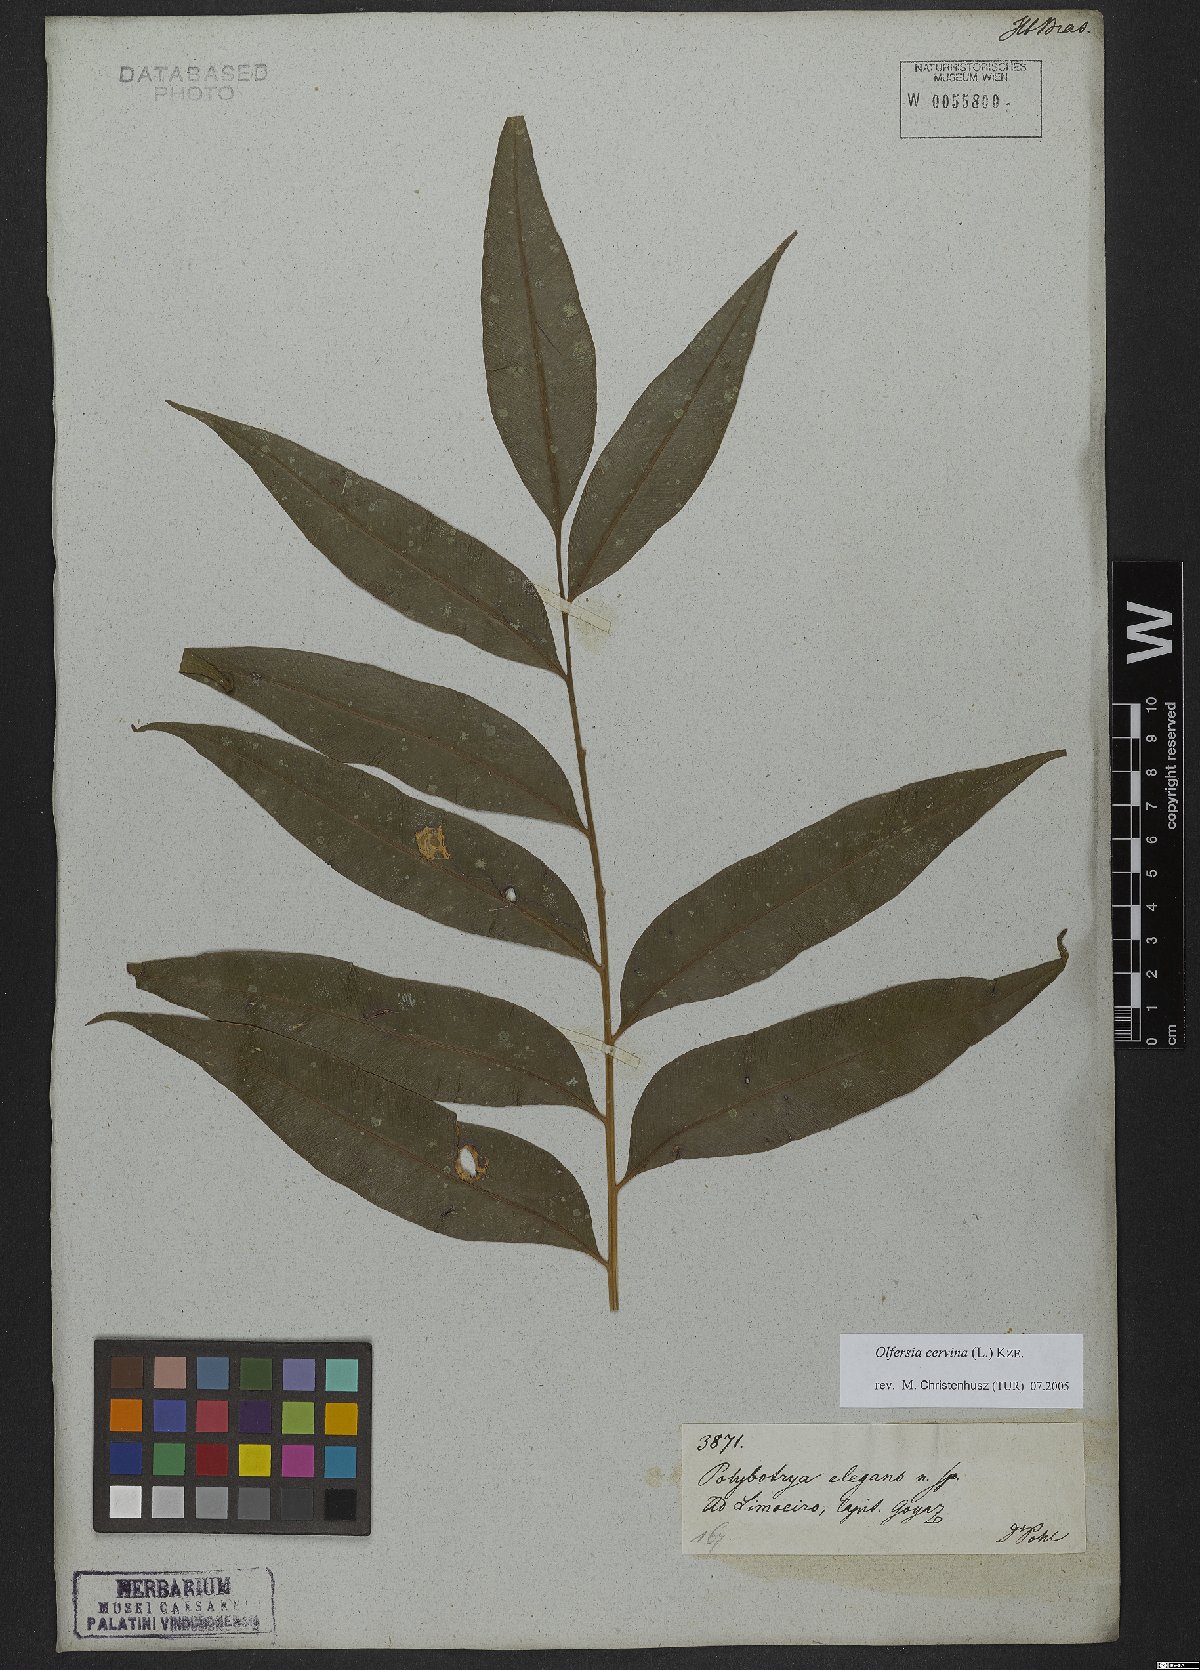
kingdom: Plantae
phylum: Tracheophyta
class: Polypodiopsida
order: Polypodiales
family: Dryopteridaceae
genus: Olfersia
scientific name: Olfersia cervina
